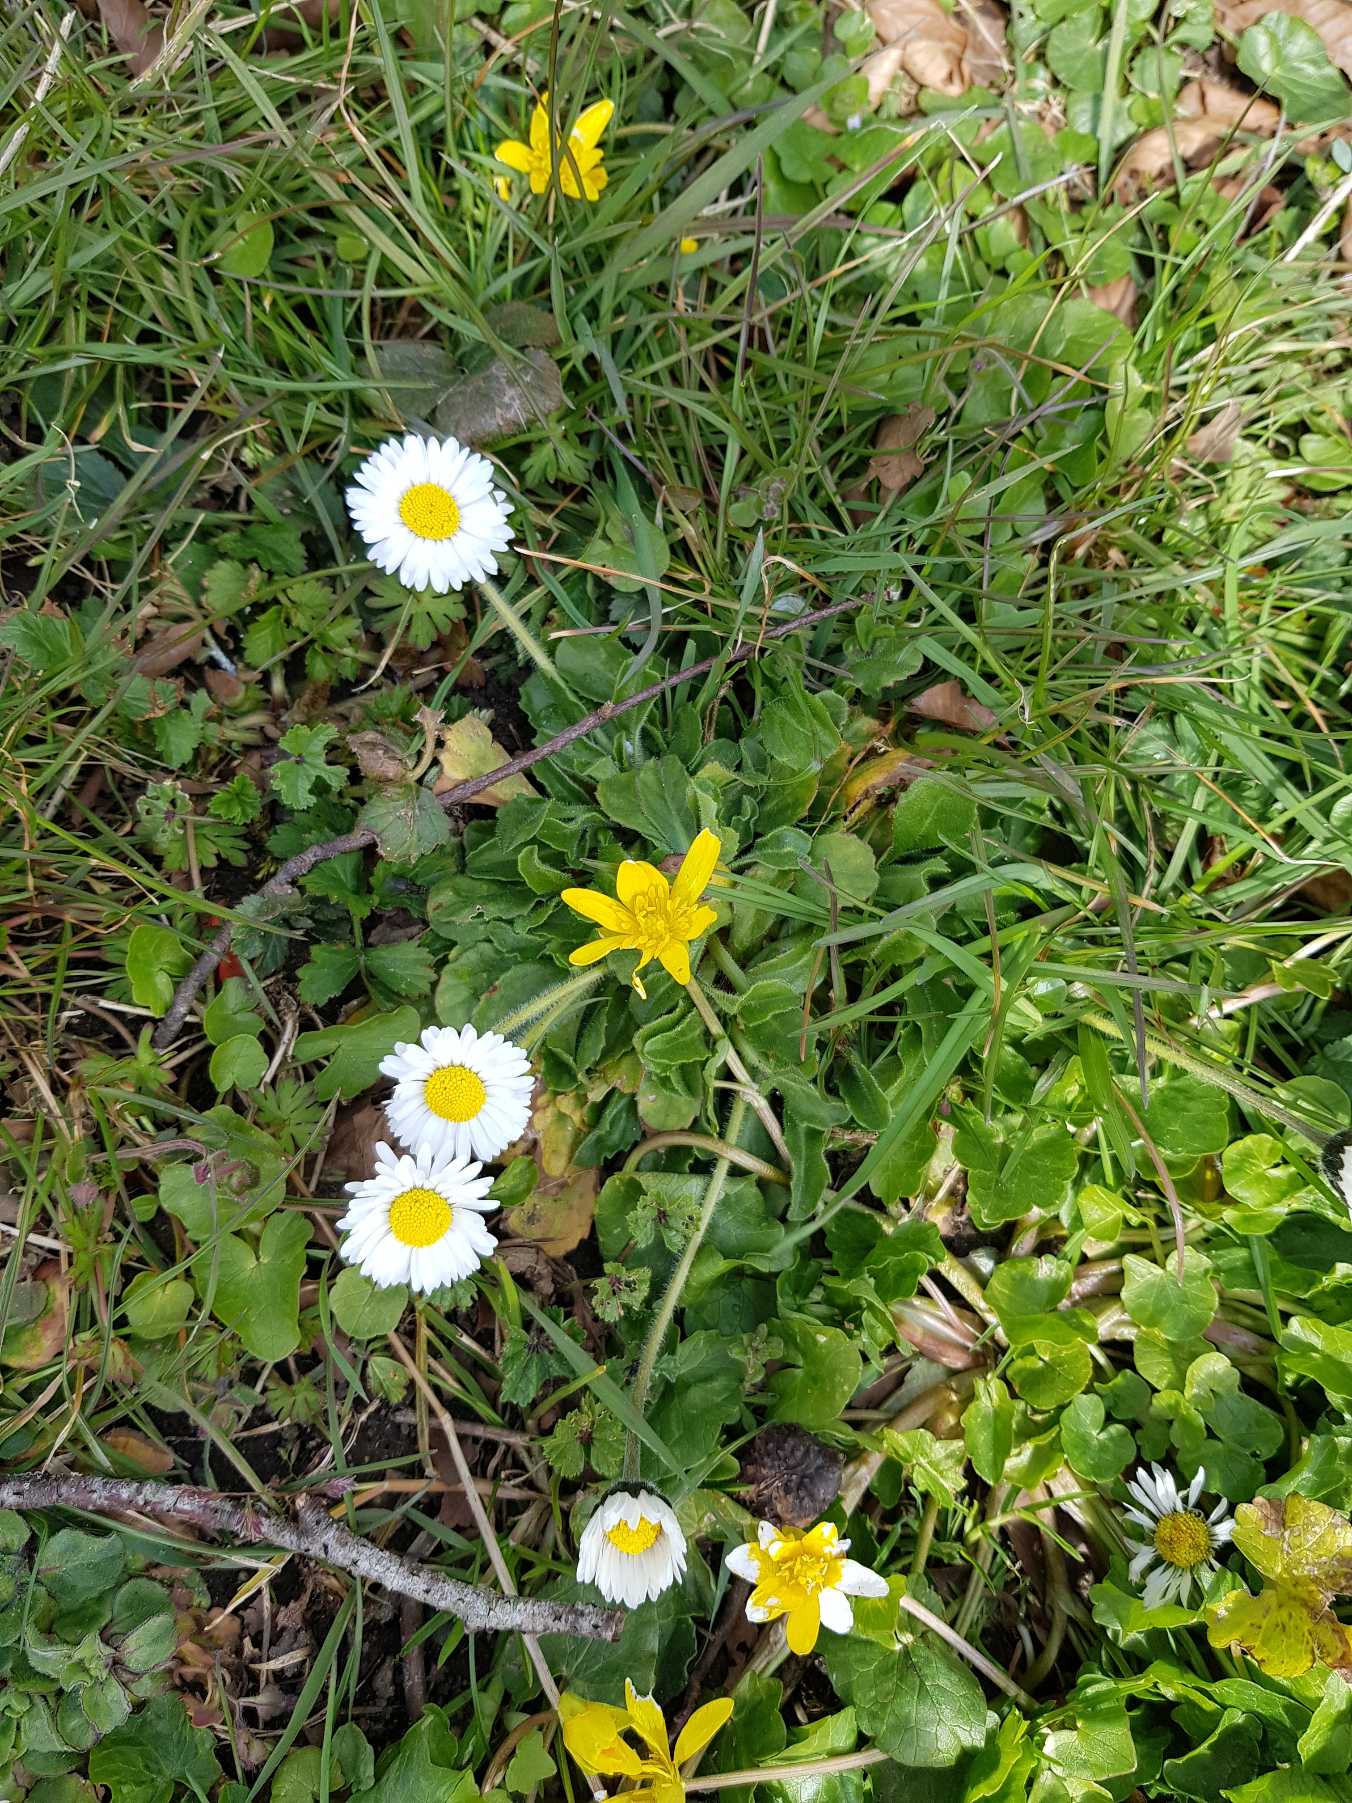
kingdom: Plantae
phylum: Tracheophyta
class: Magnoliopsida
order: Asterales
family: Asteraceae
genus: Bellis
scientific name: Bellis perennis
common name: Tusindfryd
